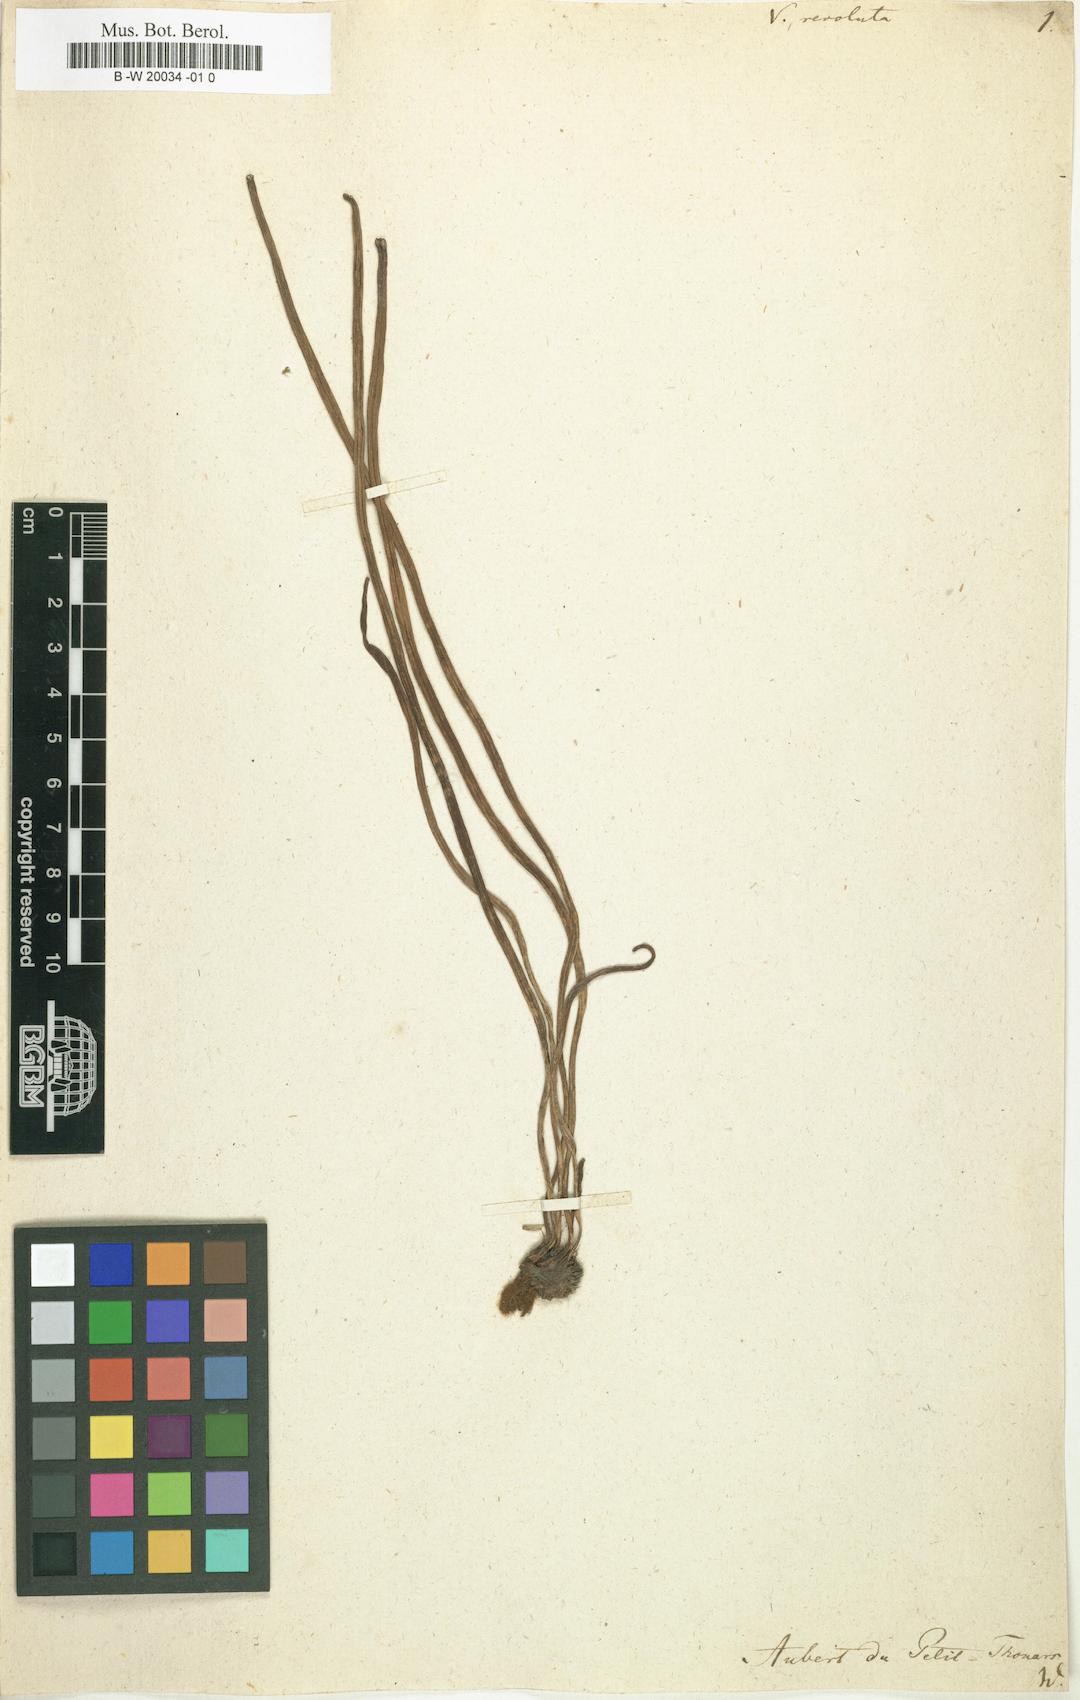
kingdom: Plantae
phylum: Tracheophyta
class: Polypodiopsida
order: Polypodiales
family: Pteridaceae
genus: Vittaria
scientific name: Vittaria revoluta
